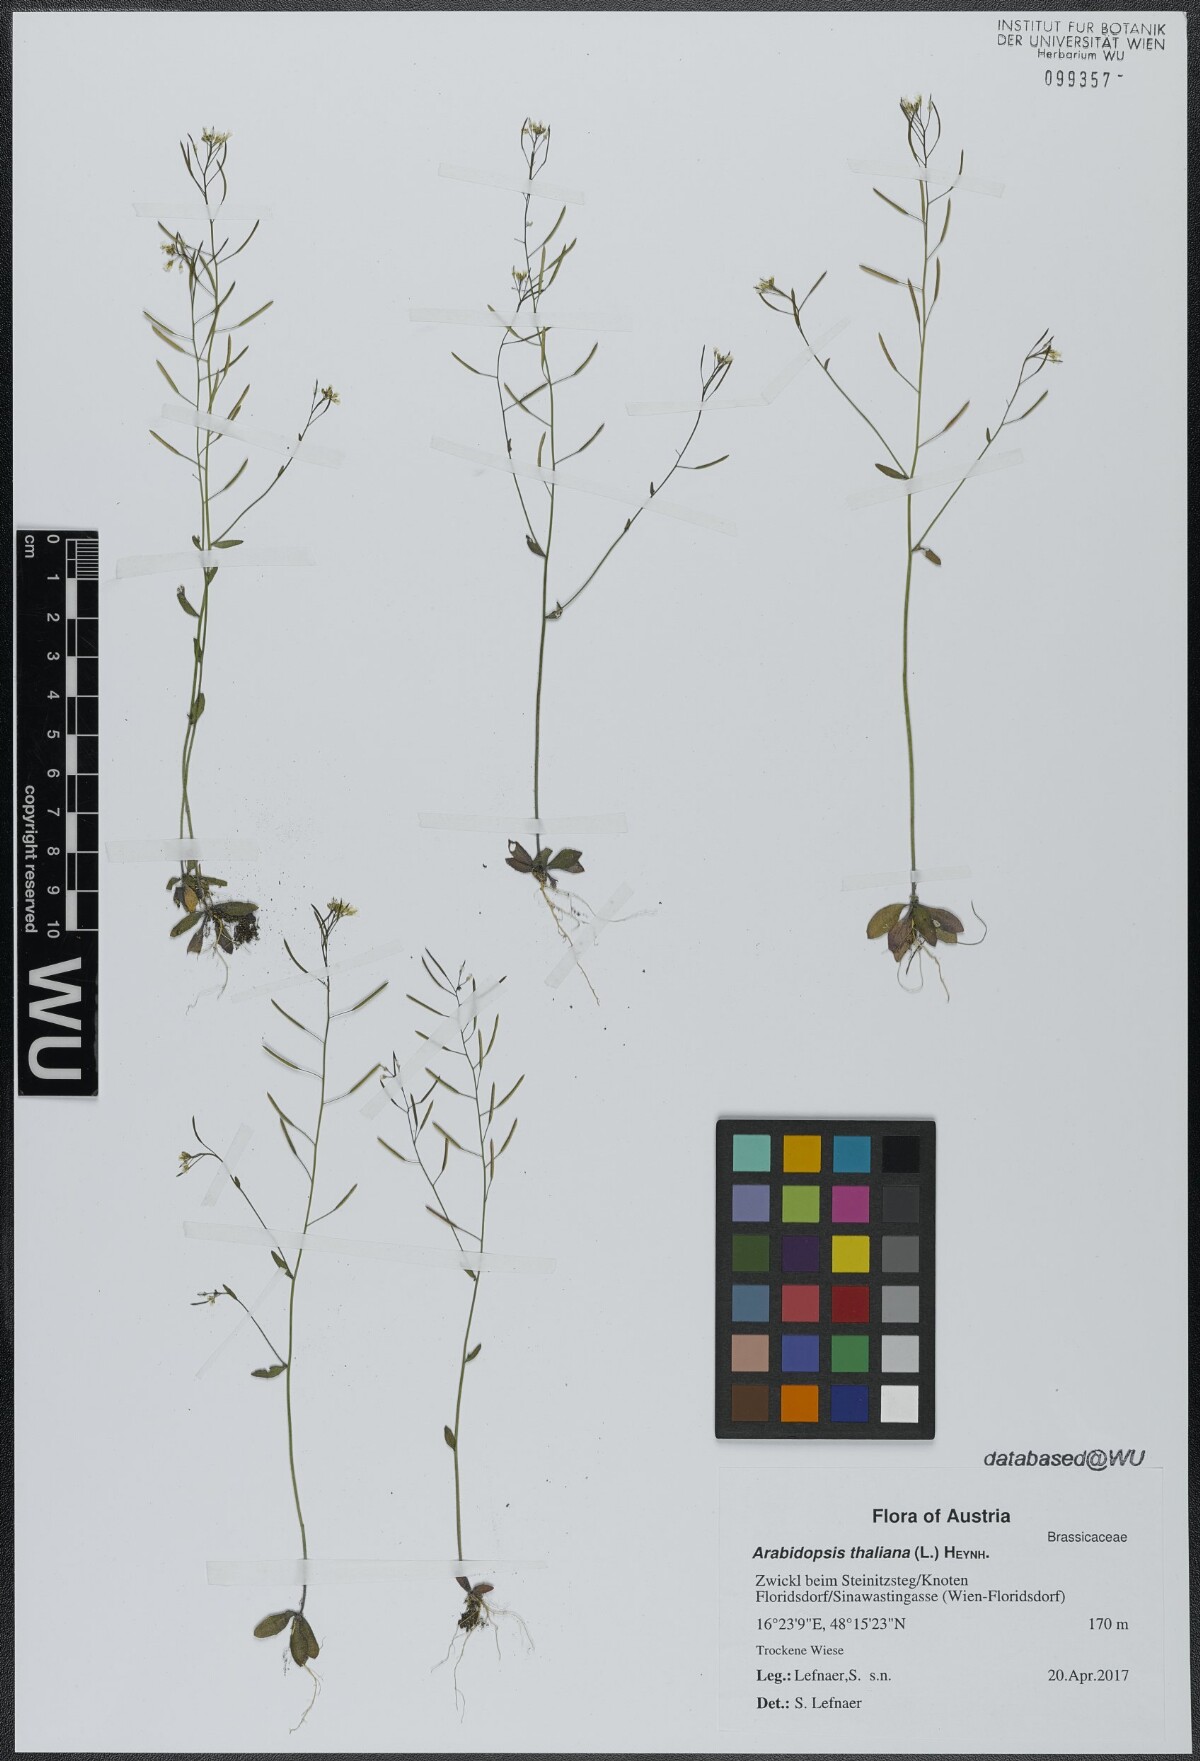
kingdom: Plantae
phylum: Tracheophyta
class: Magnoliopsida
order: Brassicales
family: Brassicaceae
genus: Arabidopsis
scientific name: Arabidopsis thaliana
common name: Thale cress
